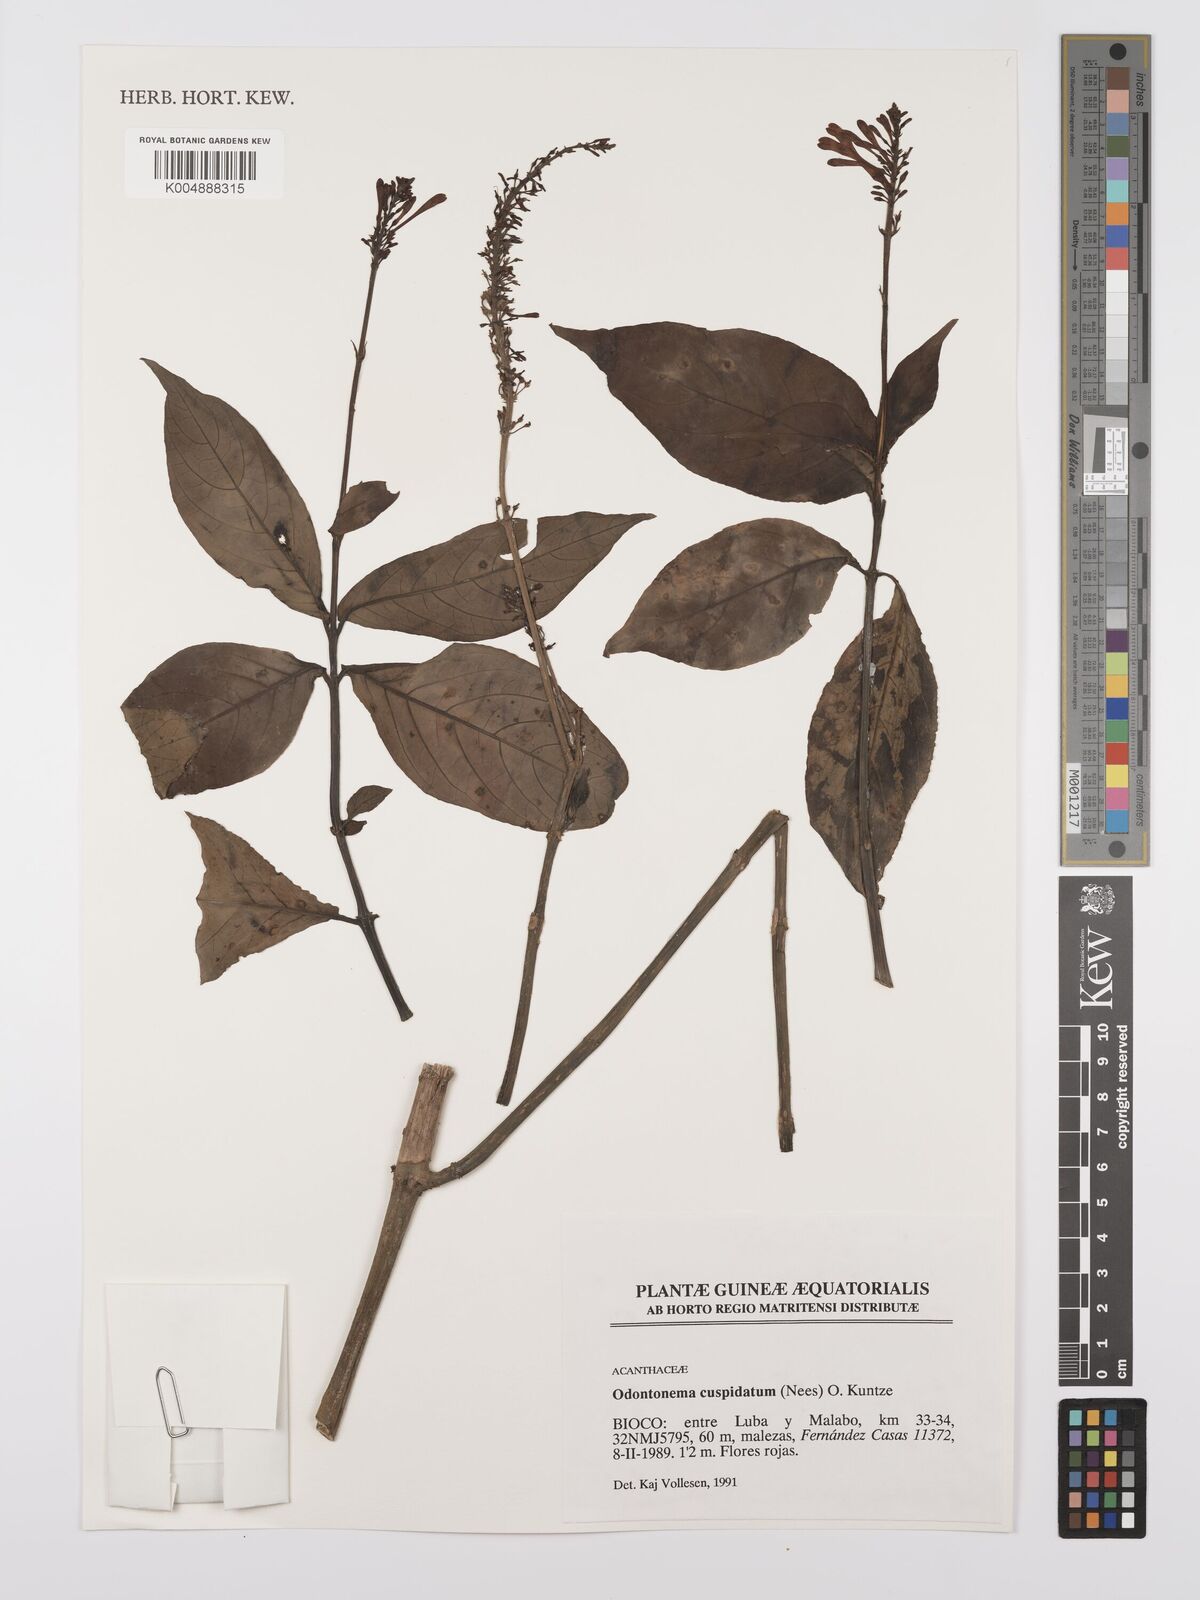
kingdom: Plantae
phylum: Tracheophyta
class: Magnoliopsida
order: Lamiales
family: Acanthaceae
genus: Odontonema
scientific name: Odontonema cuspidatum
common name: Mottled toothedthread
